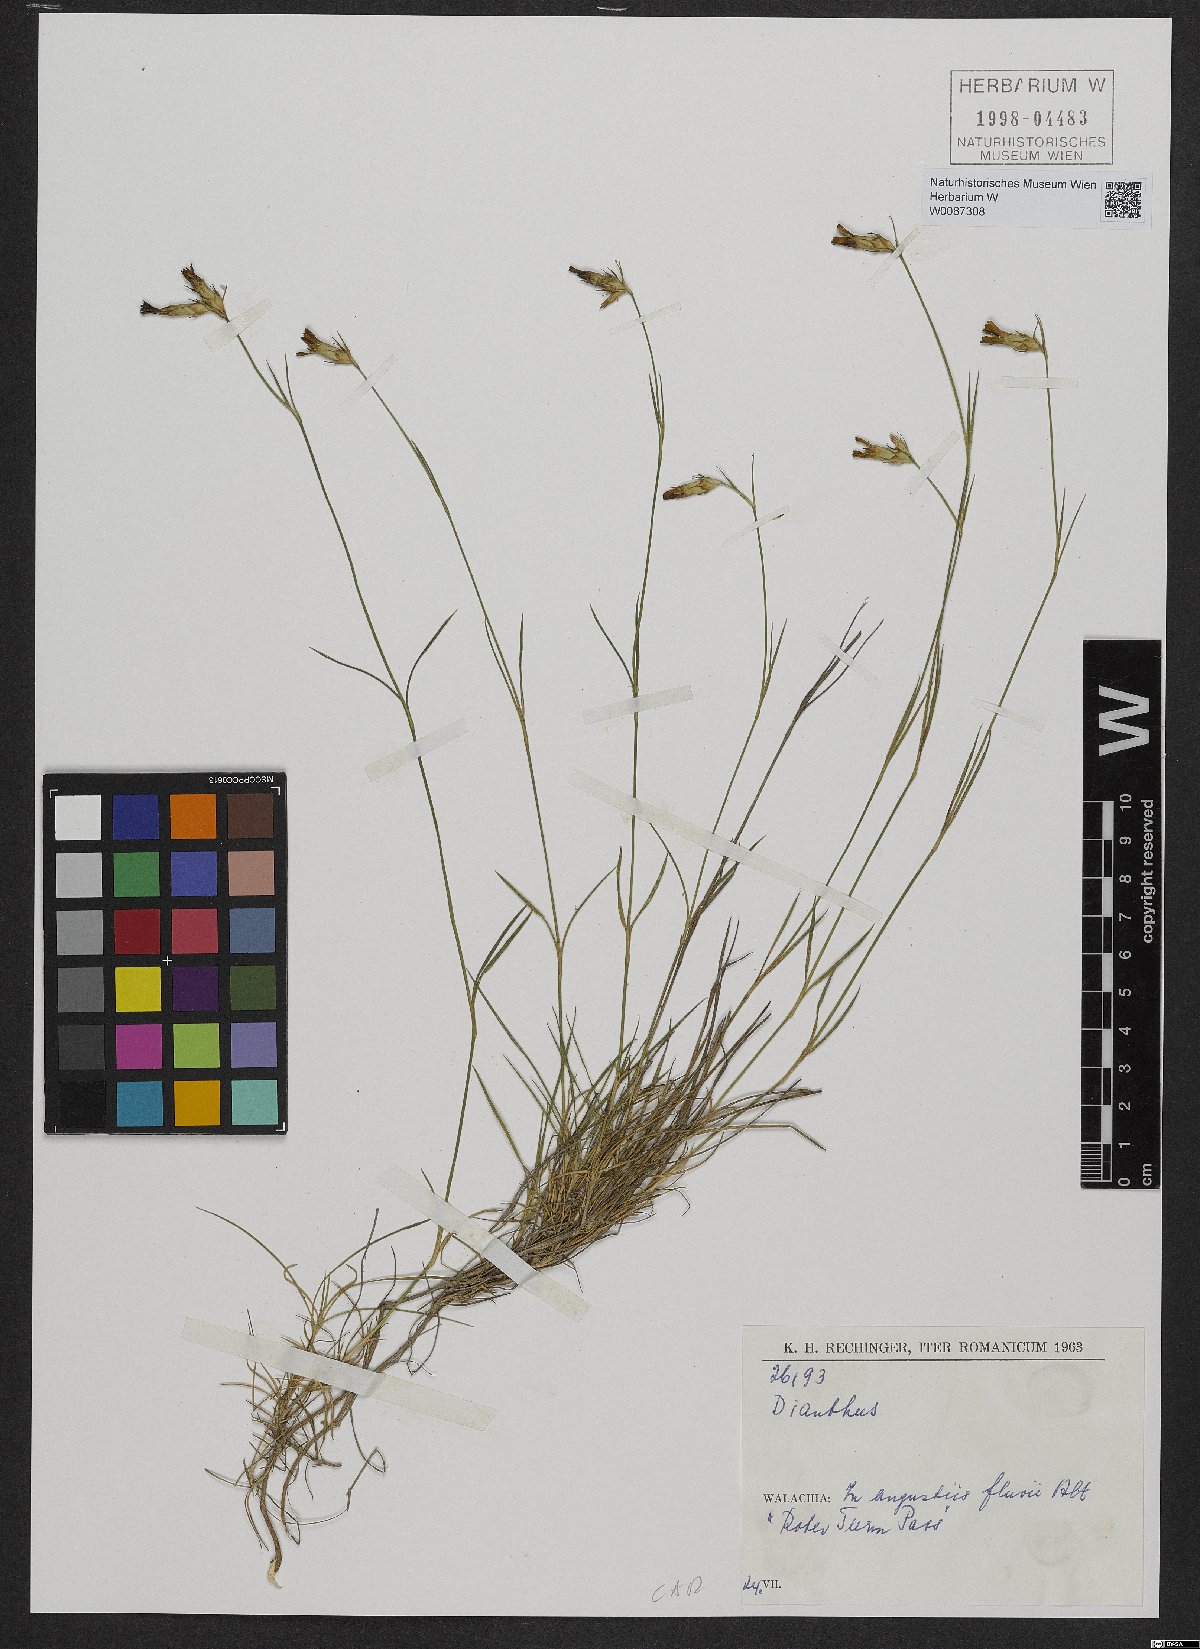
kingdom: Plantae
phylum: Tracheophyta
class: Magnoliopsida
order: Caryophyllales
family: Caryophyllaceae
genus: Dianthus
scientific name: Dianthus
